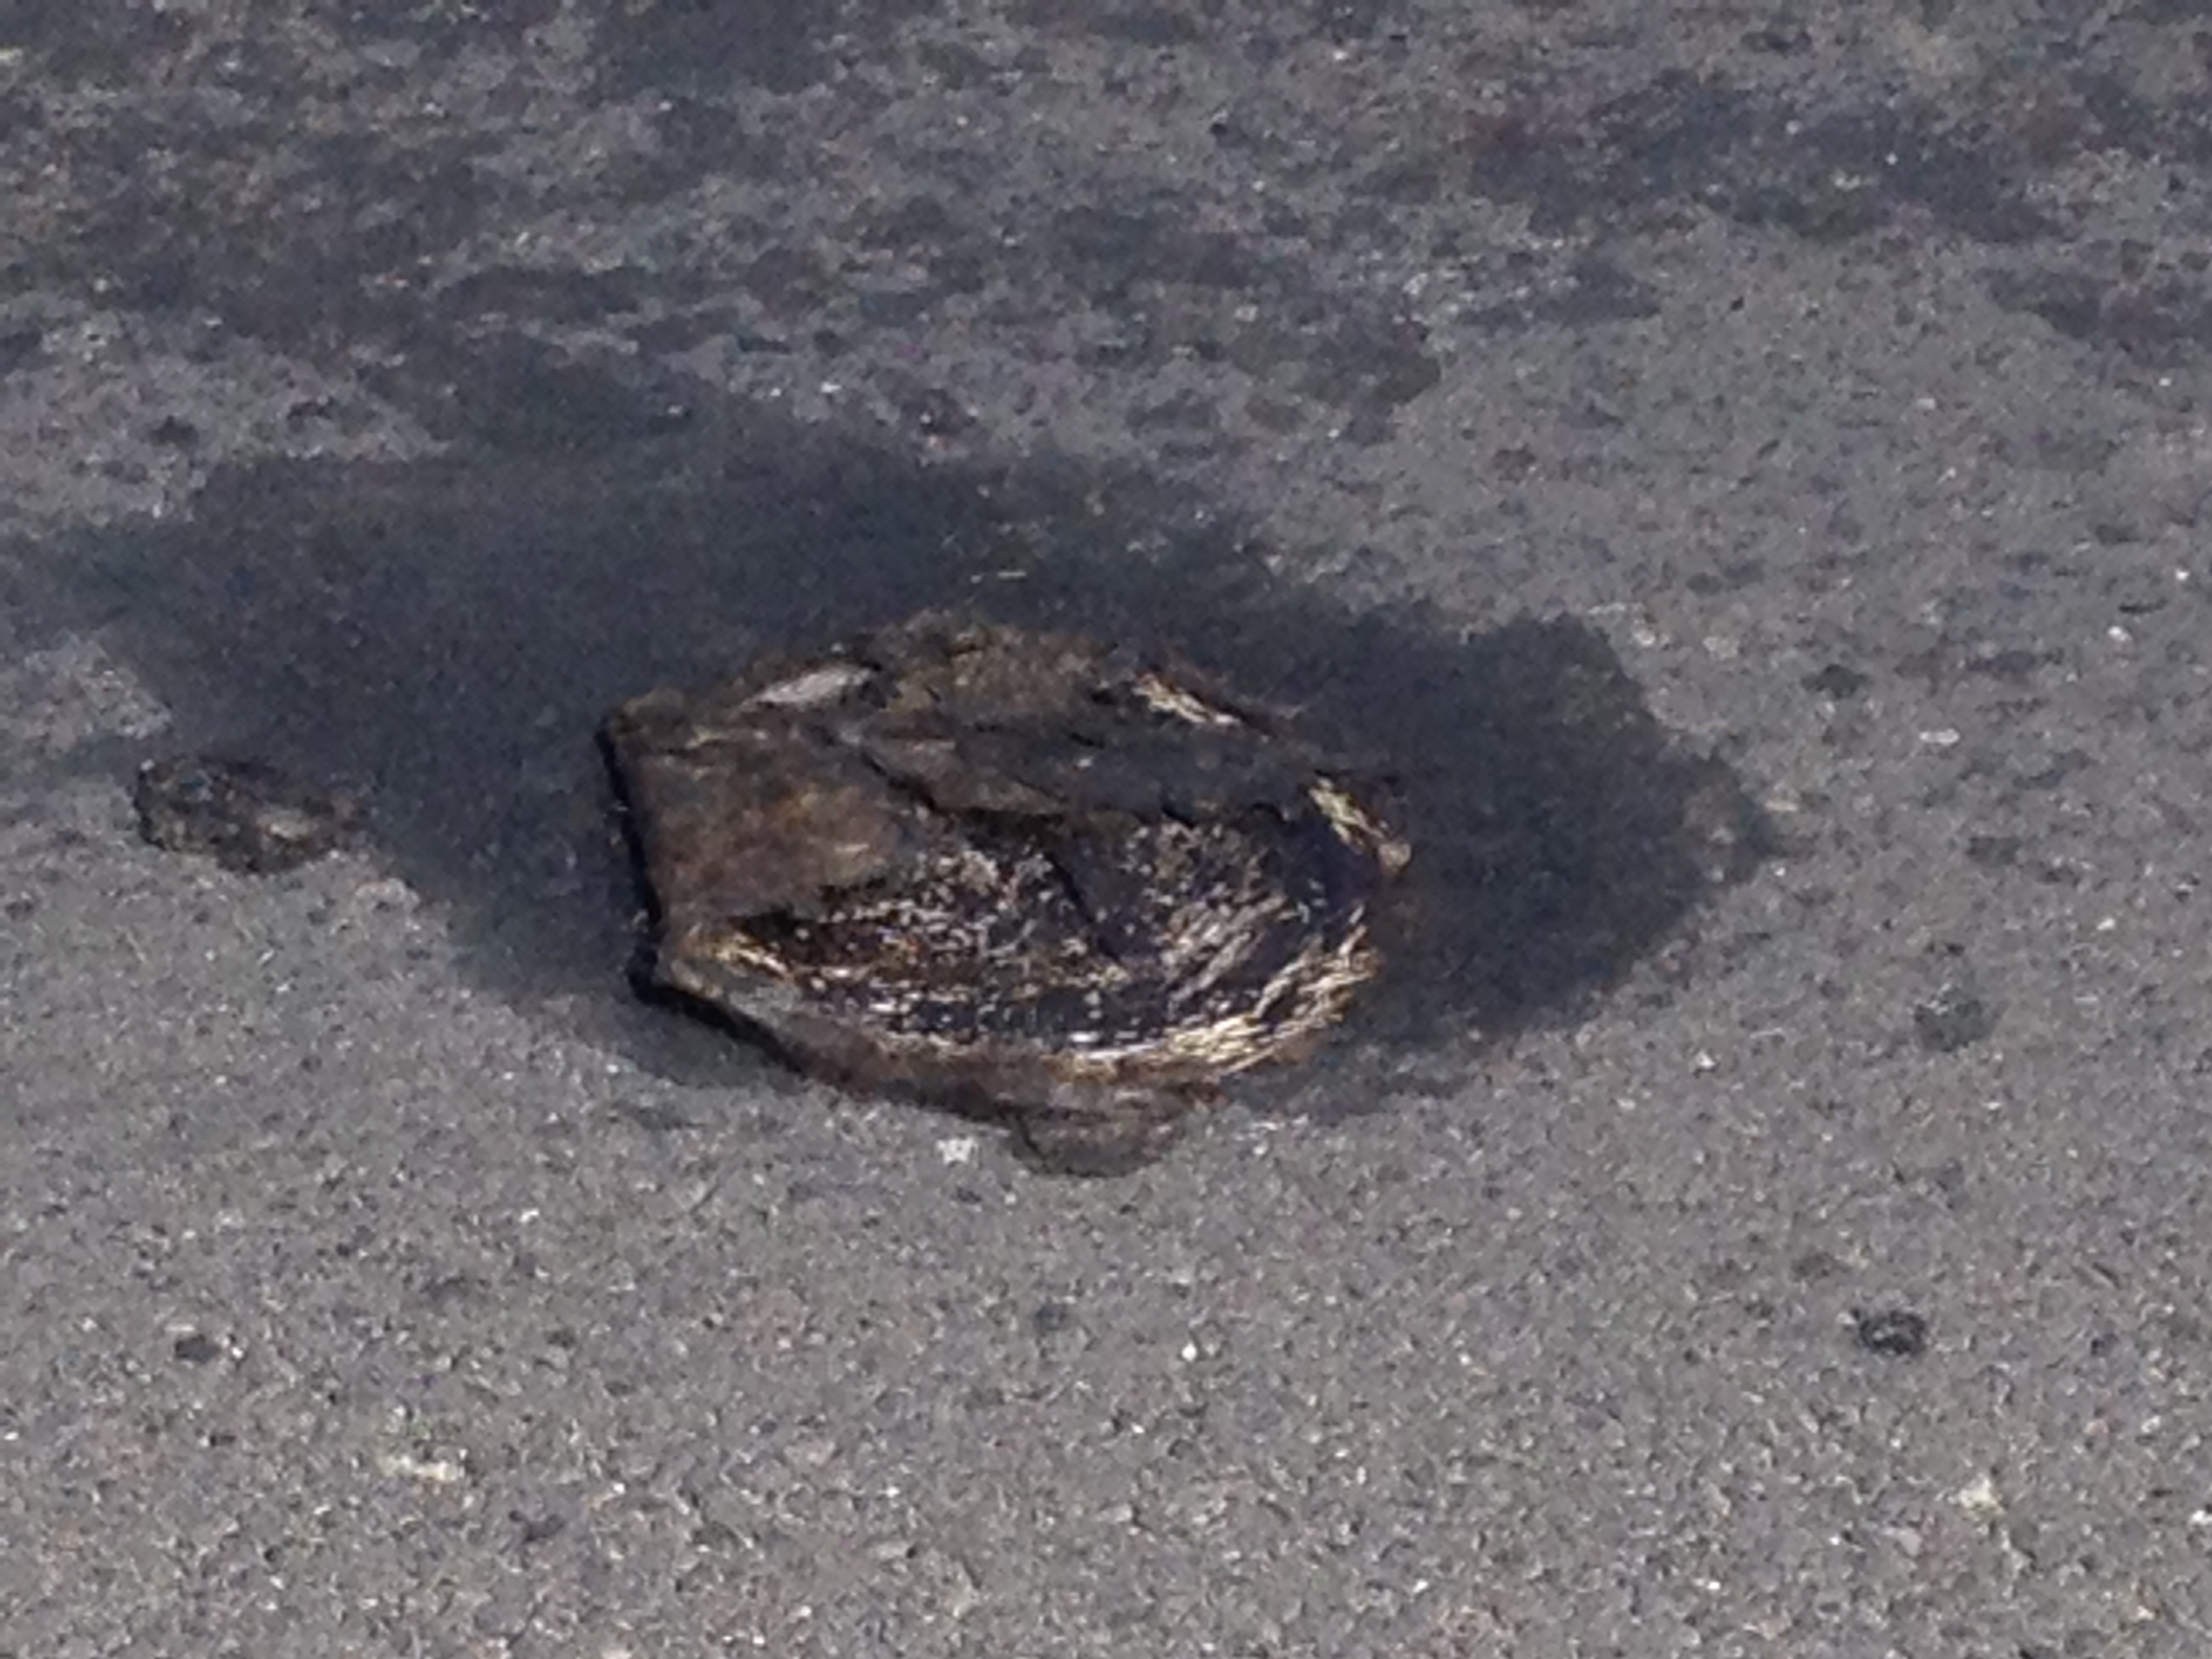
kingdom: Animalia
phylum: Chordata
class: Mammalia
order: Erinaceomorpha
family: Erinaceidae
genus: Erinaceus
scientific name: Erinaceus
